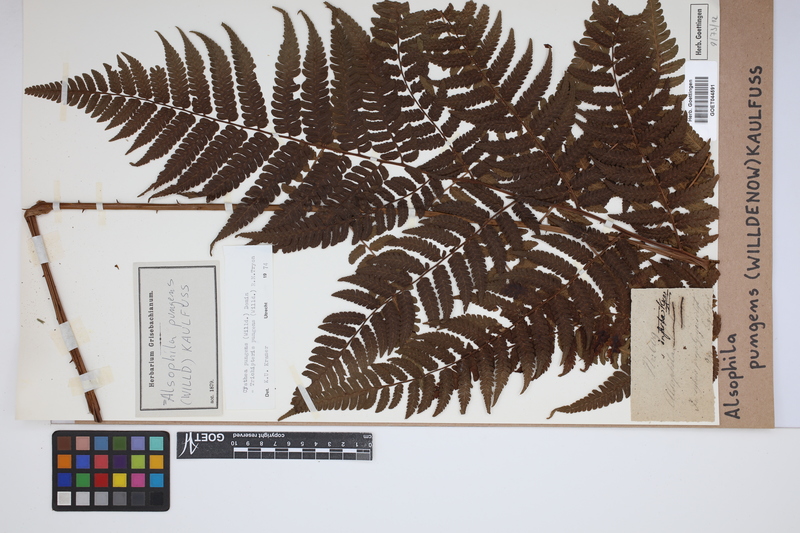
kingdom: Plantae
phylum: Tracheophyta
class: Polypodiopsida
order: Cyatheales
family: Cyatheaceae
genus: Cyathea
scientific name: Cyathea pungens
